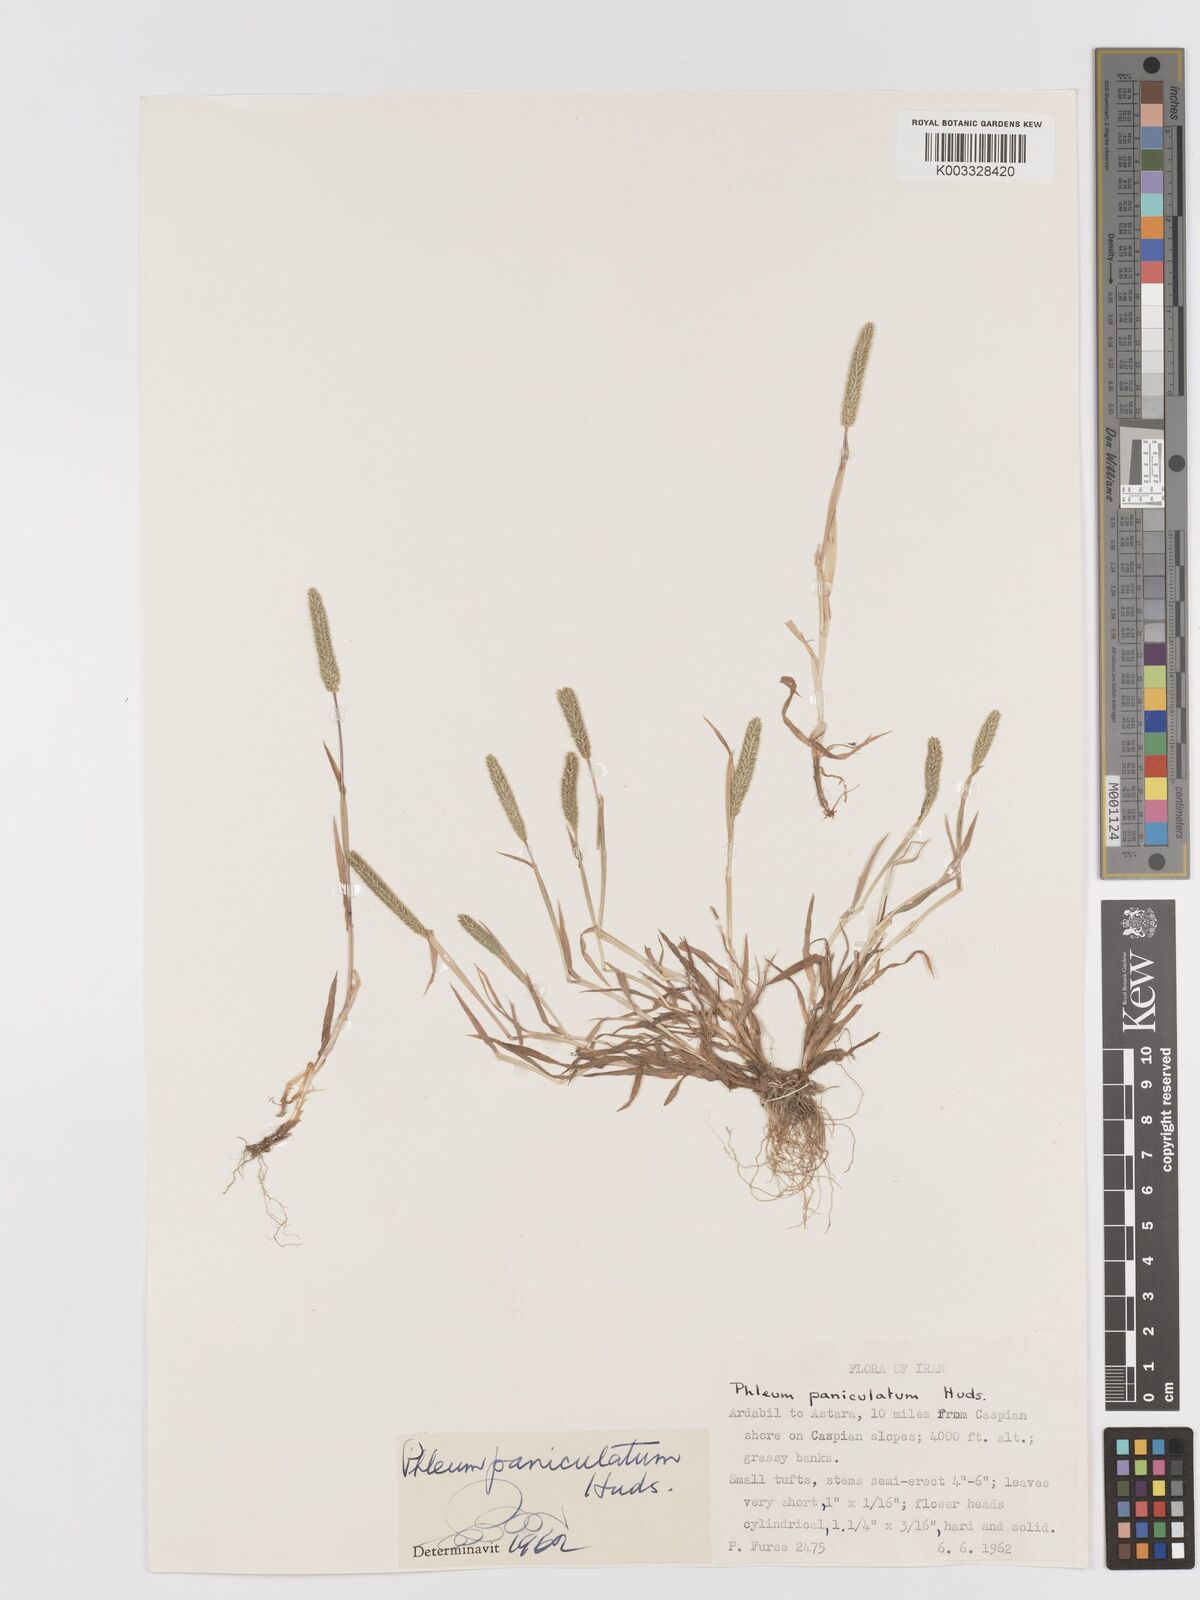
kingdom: Plantae
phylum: Tracheophyta
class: Liliopsida
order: Poales
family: Poaceae
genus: Phleum
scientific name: Phleum paniculatum
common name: British timothy
